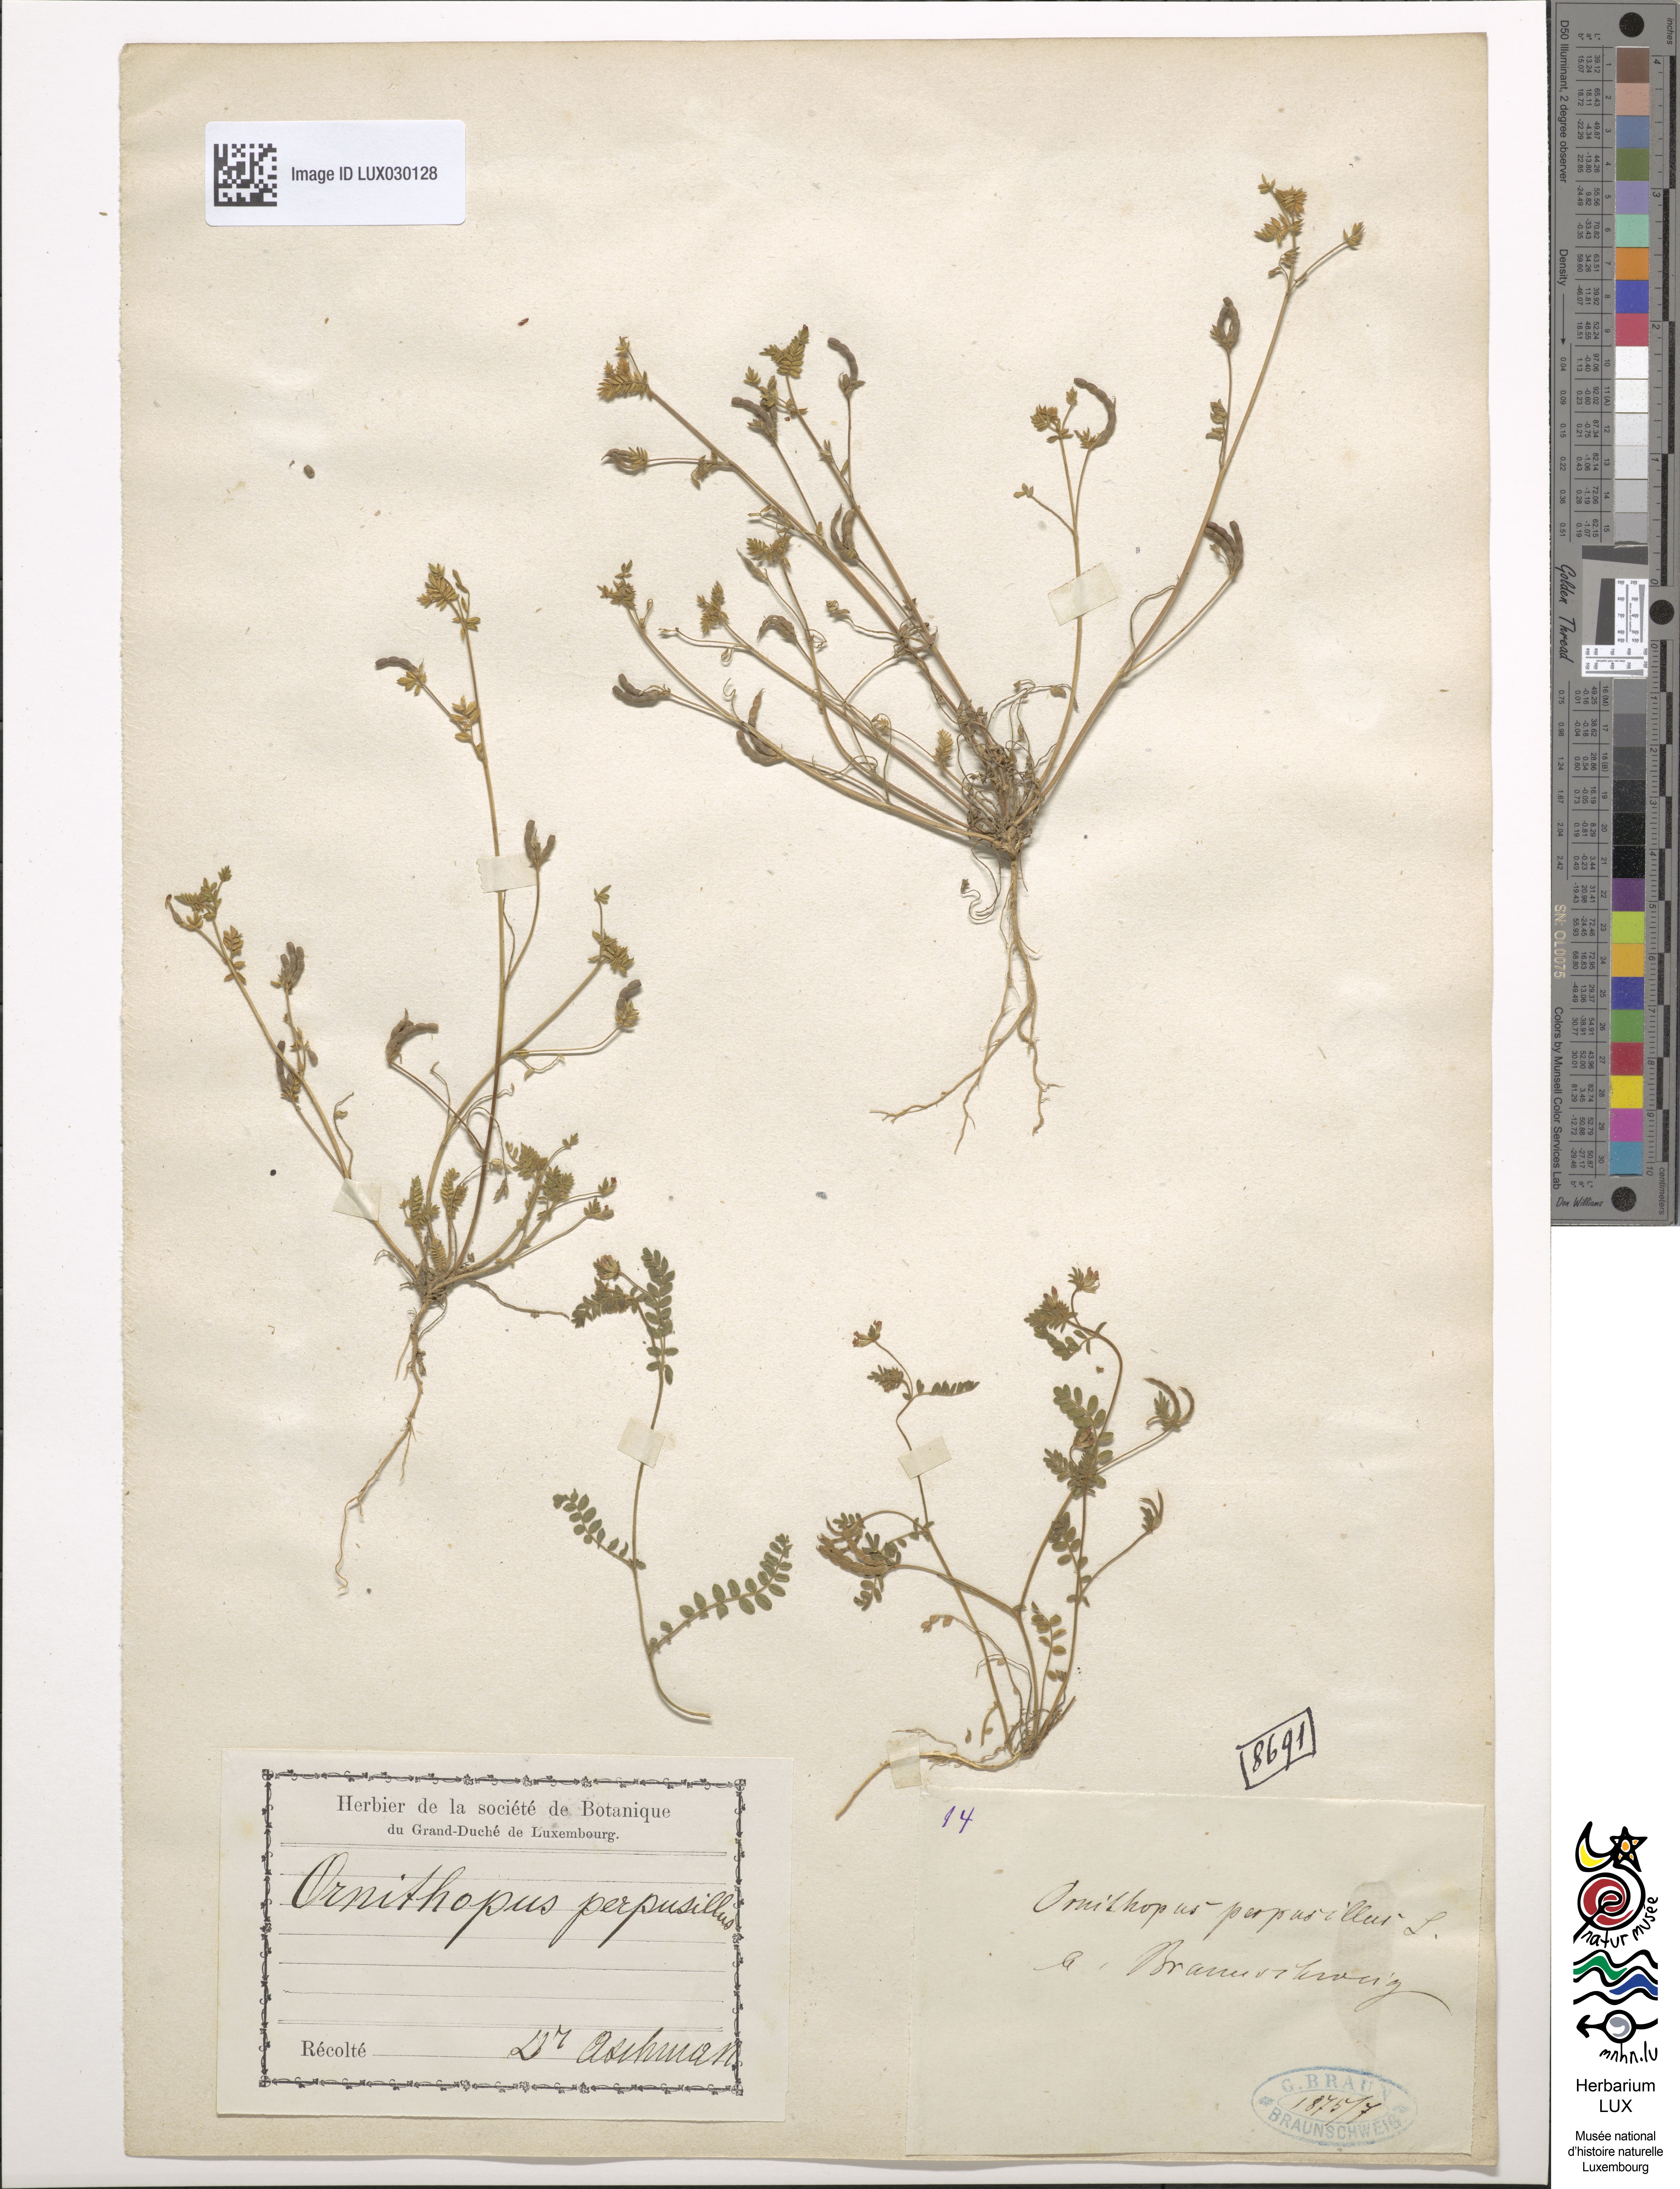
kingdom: Plantae
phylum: Tracheophyta
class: Magnoliopsida
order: Fabales
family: Fabaceae
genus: Ornithopus
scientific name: Ornithopus perpusillus
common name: Bird's-foot
